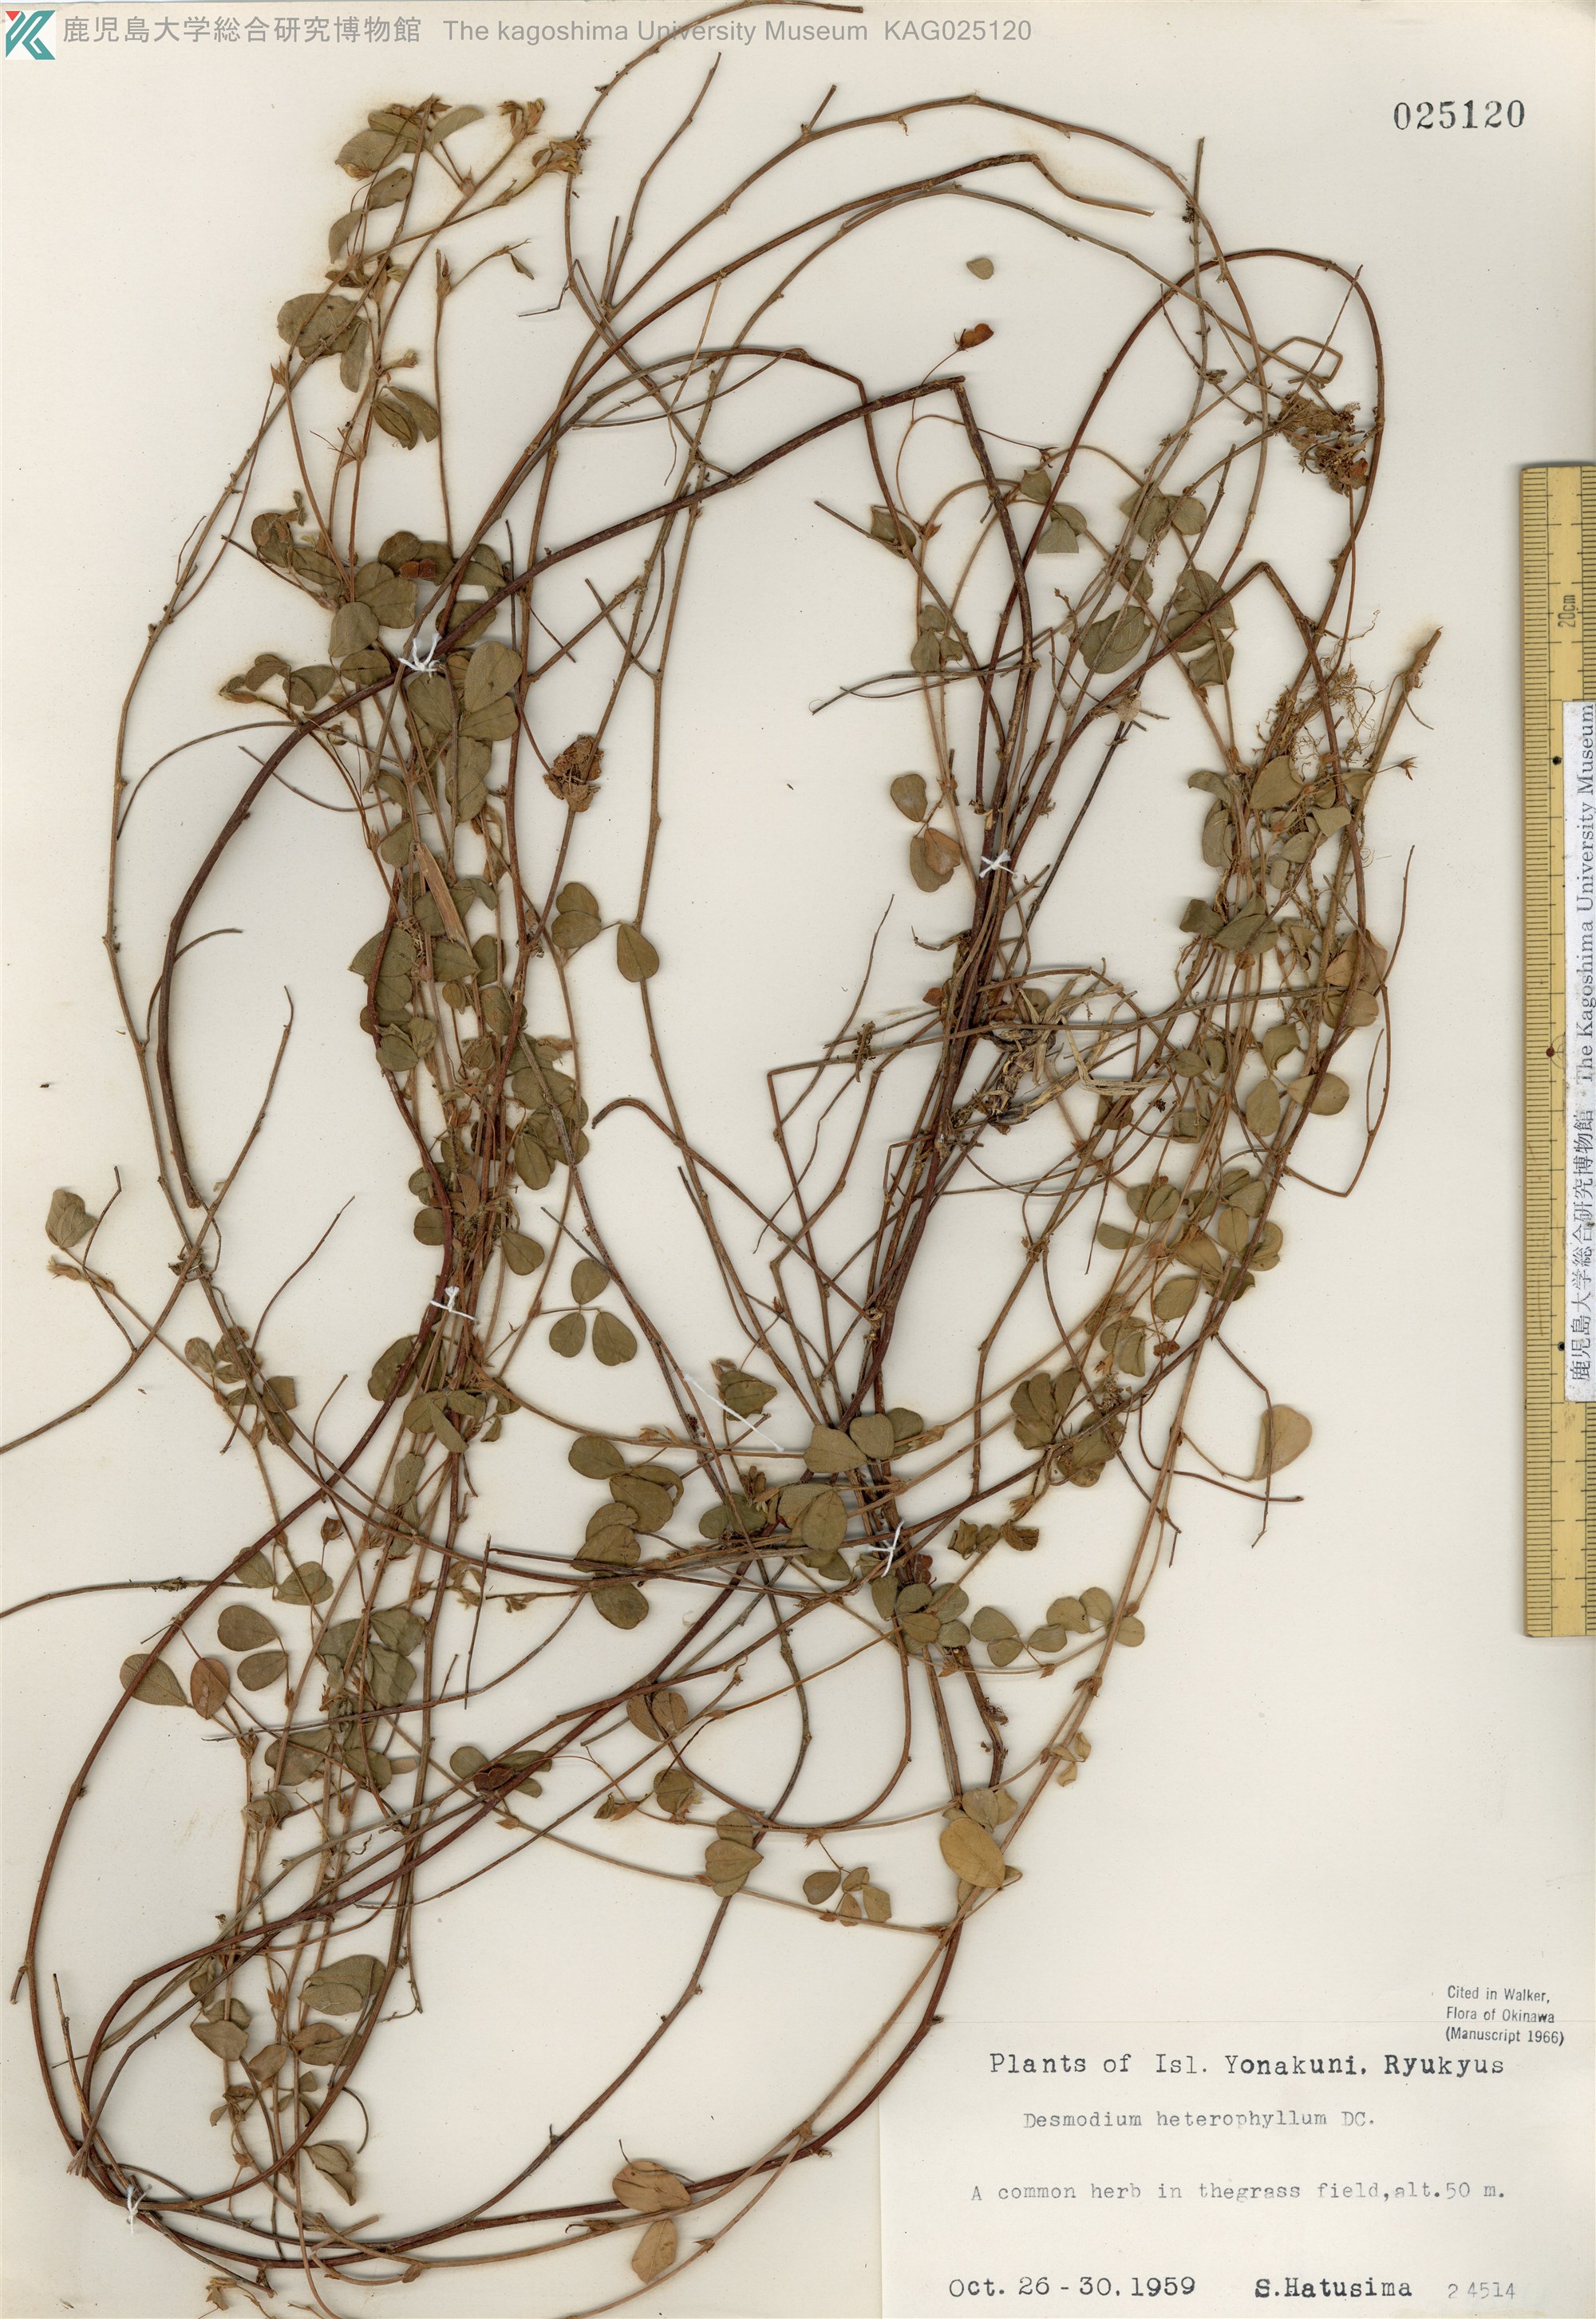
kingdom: Plantae
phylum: Tracheophyta
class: Magnoliopsida
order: Fabales
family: Fabaceae
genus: Desmodium
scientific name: Desmodium heterophyllum
